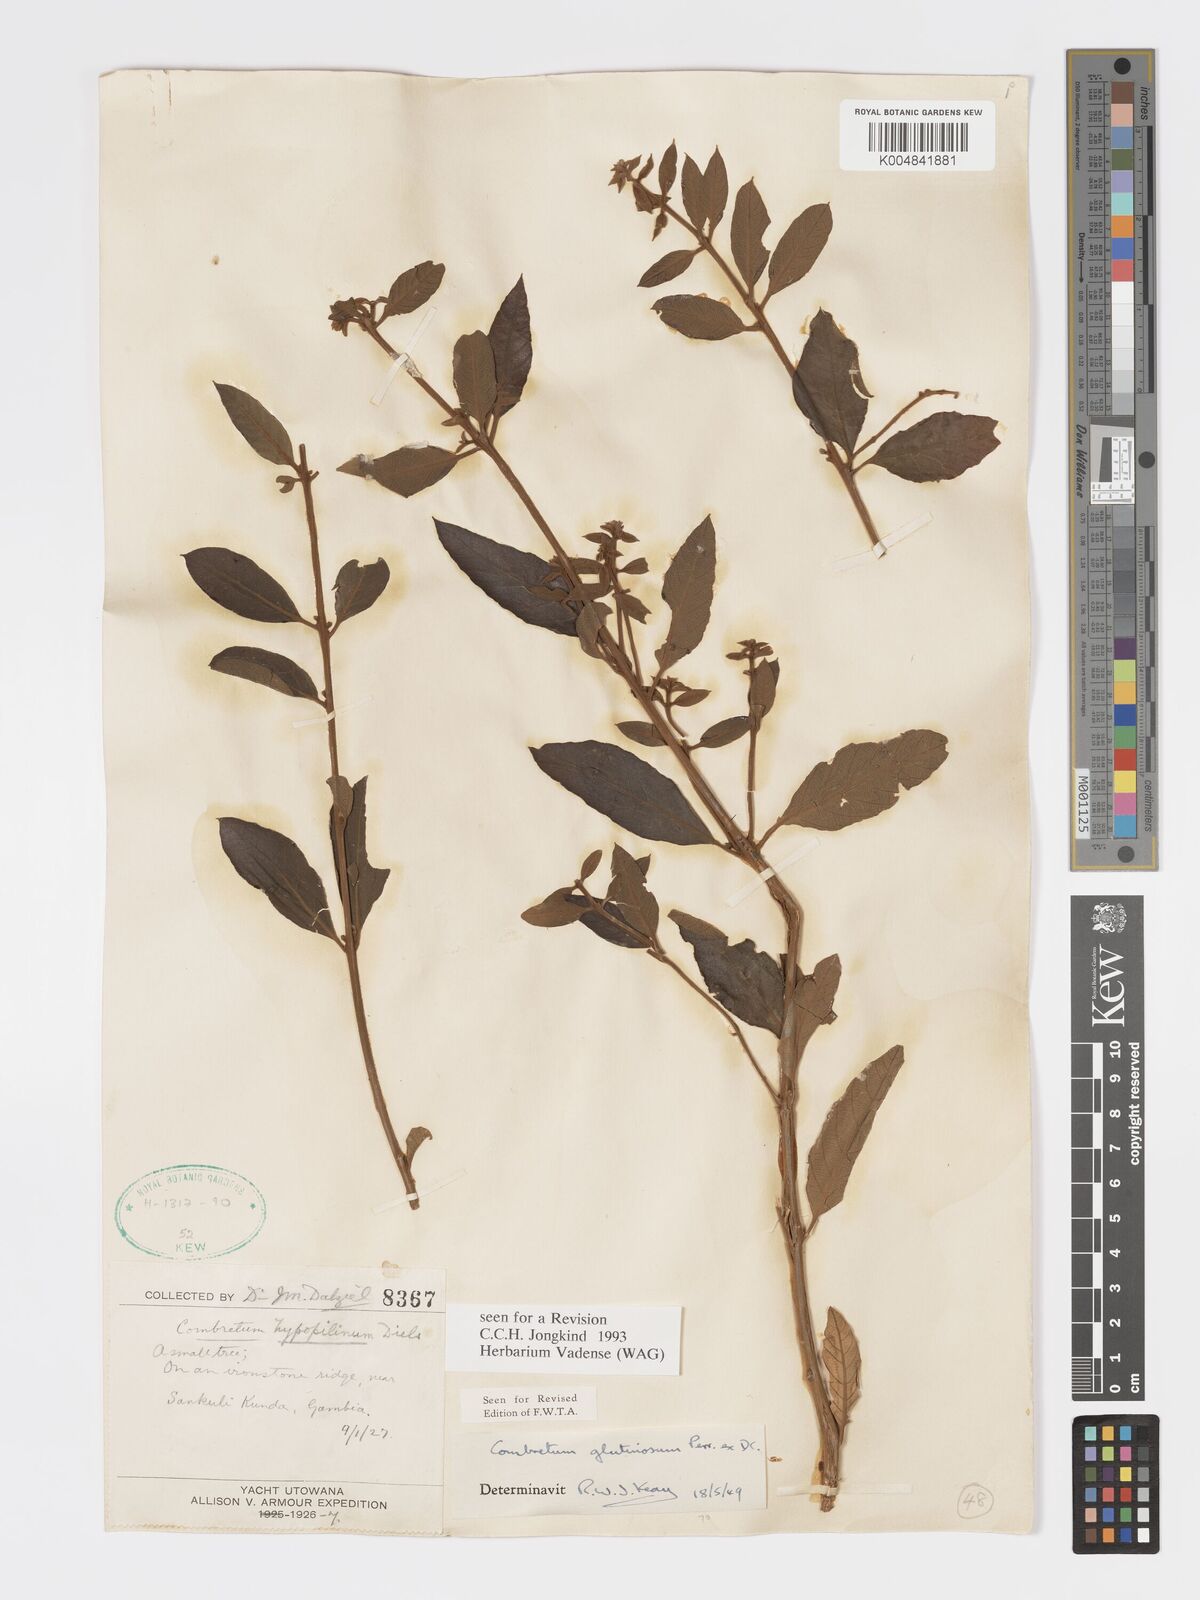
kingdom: Plantae
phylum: Tracheophyta
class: Magnoliopsida
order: Myrtales
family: Combretaceae
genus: Combretum
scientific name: Combretum
